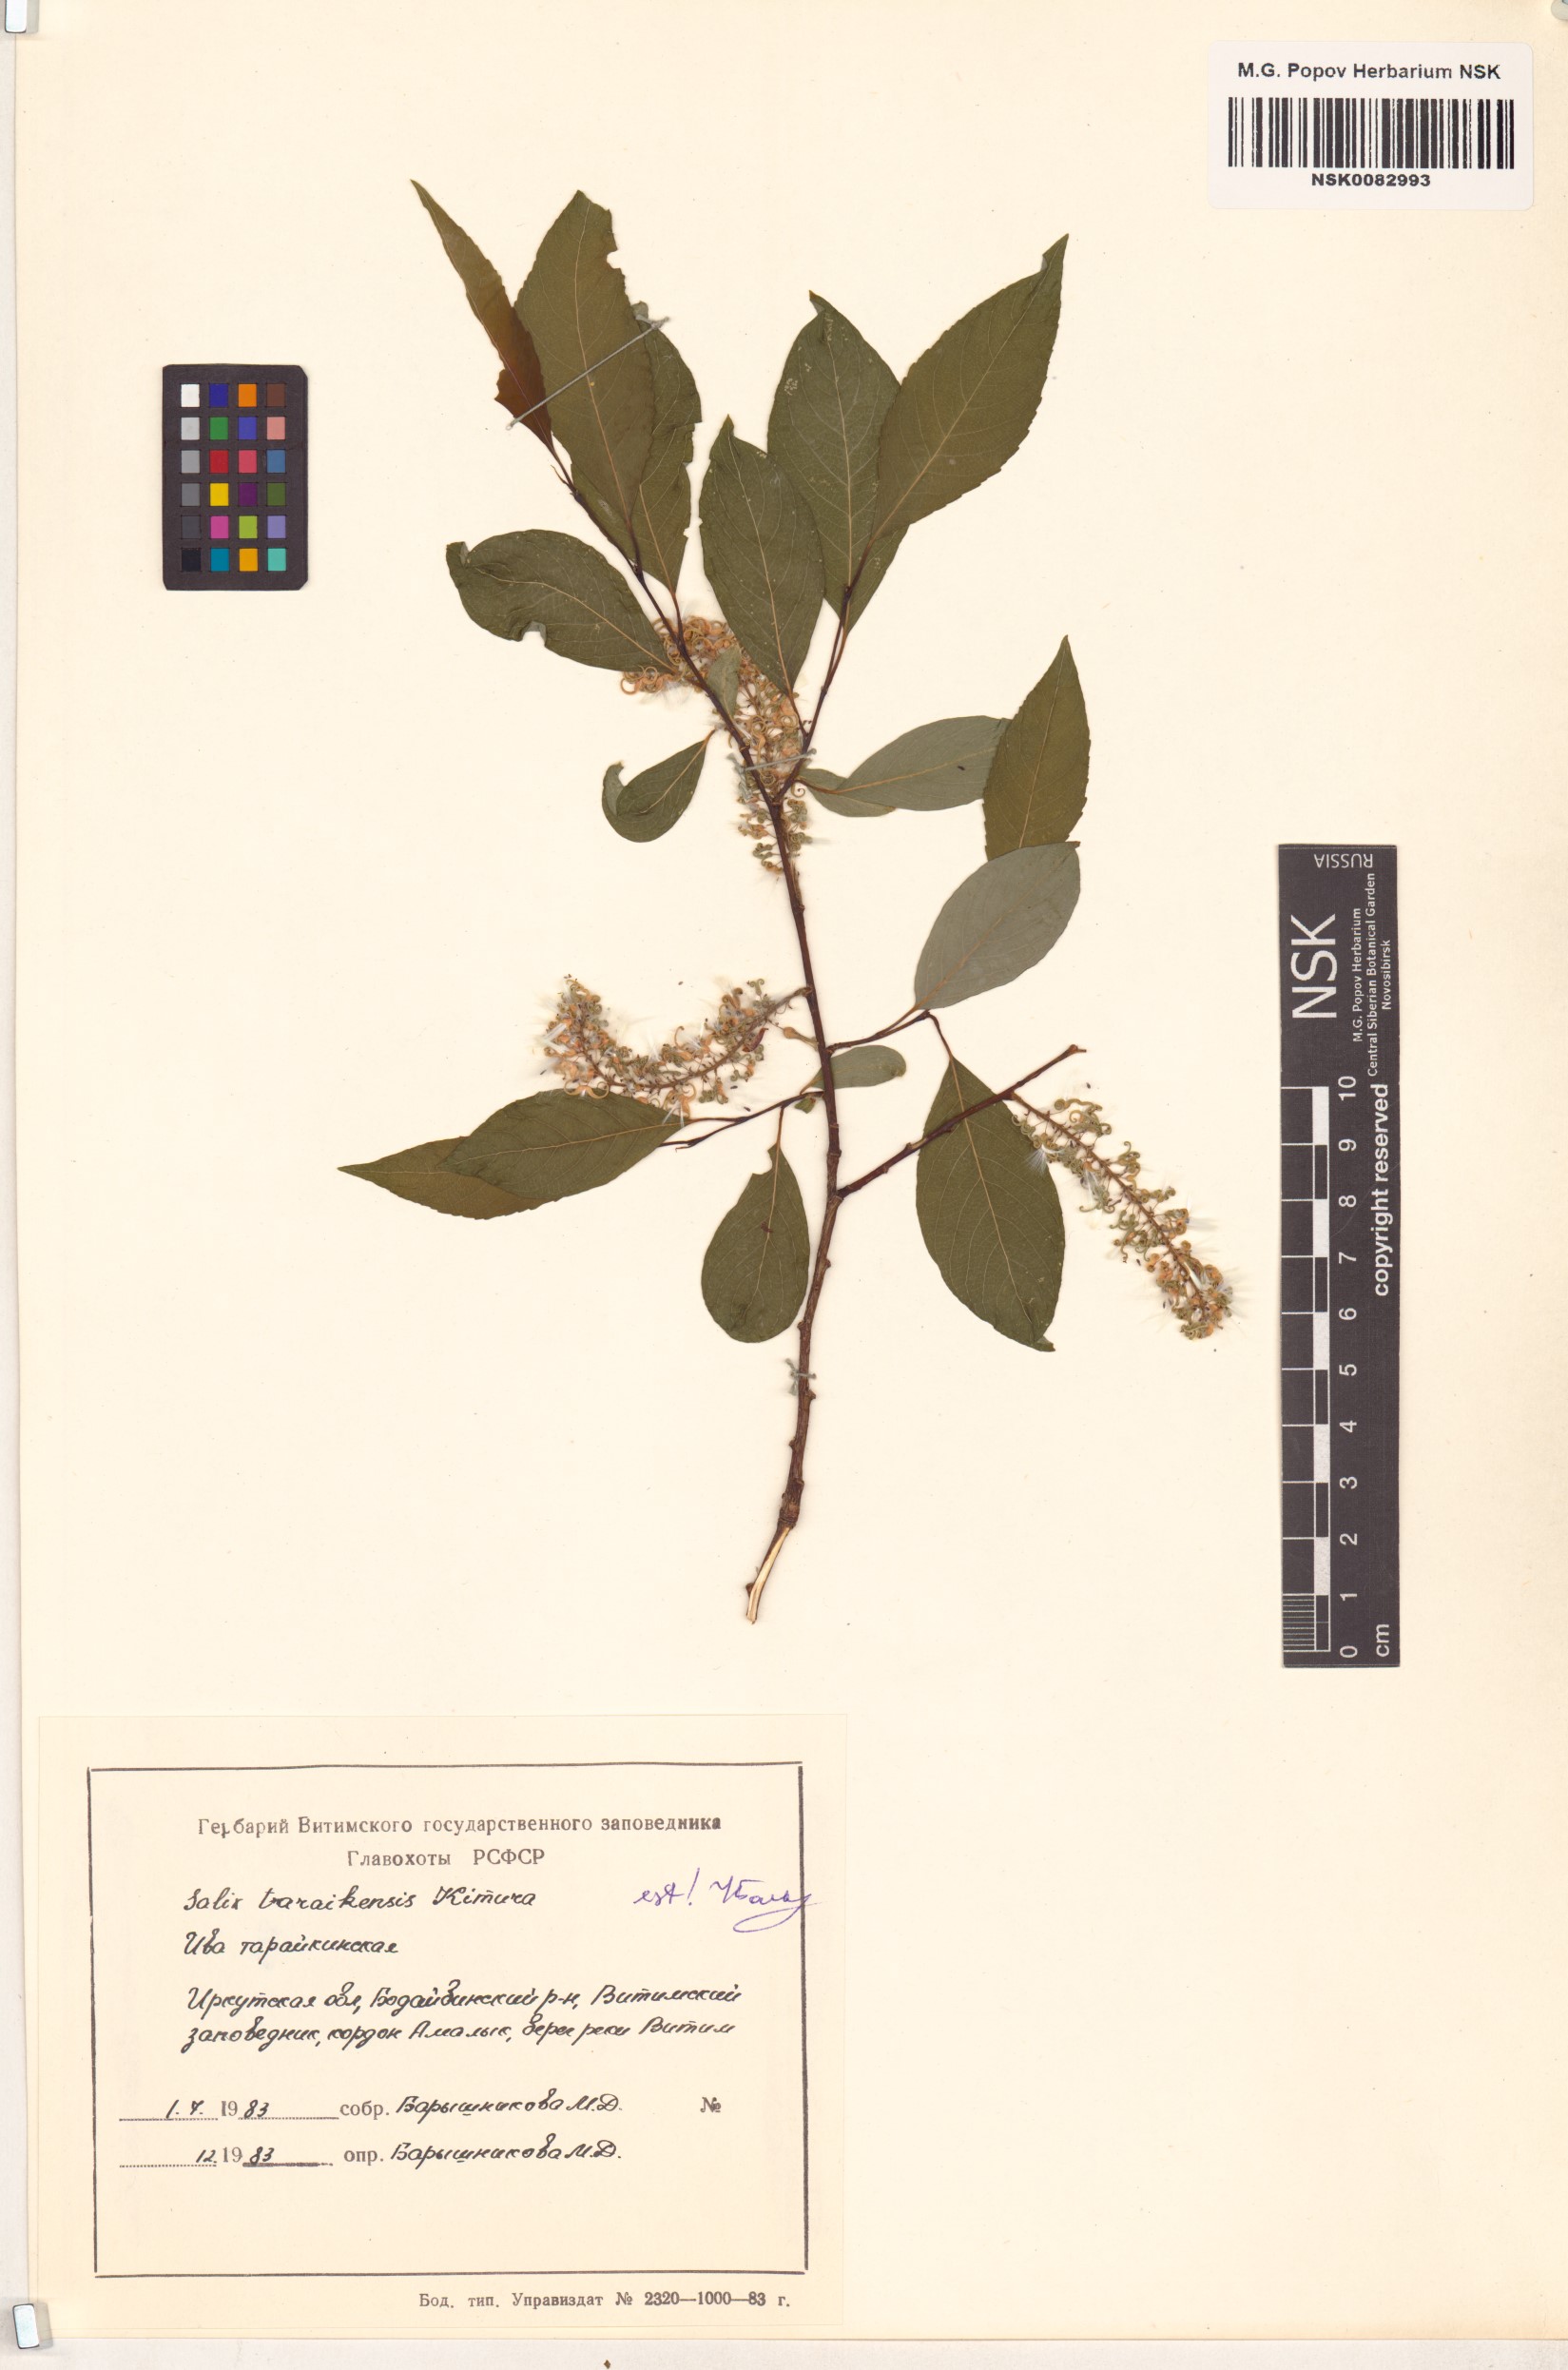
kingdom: Plantae
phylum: Tracheophyta
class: Magnoliopsida
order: Malpighiales
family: Salicaceae
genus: Salix
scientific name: Salix taraikensis
